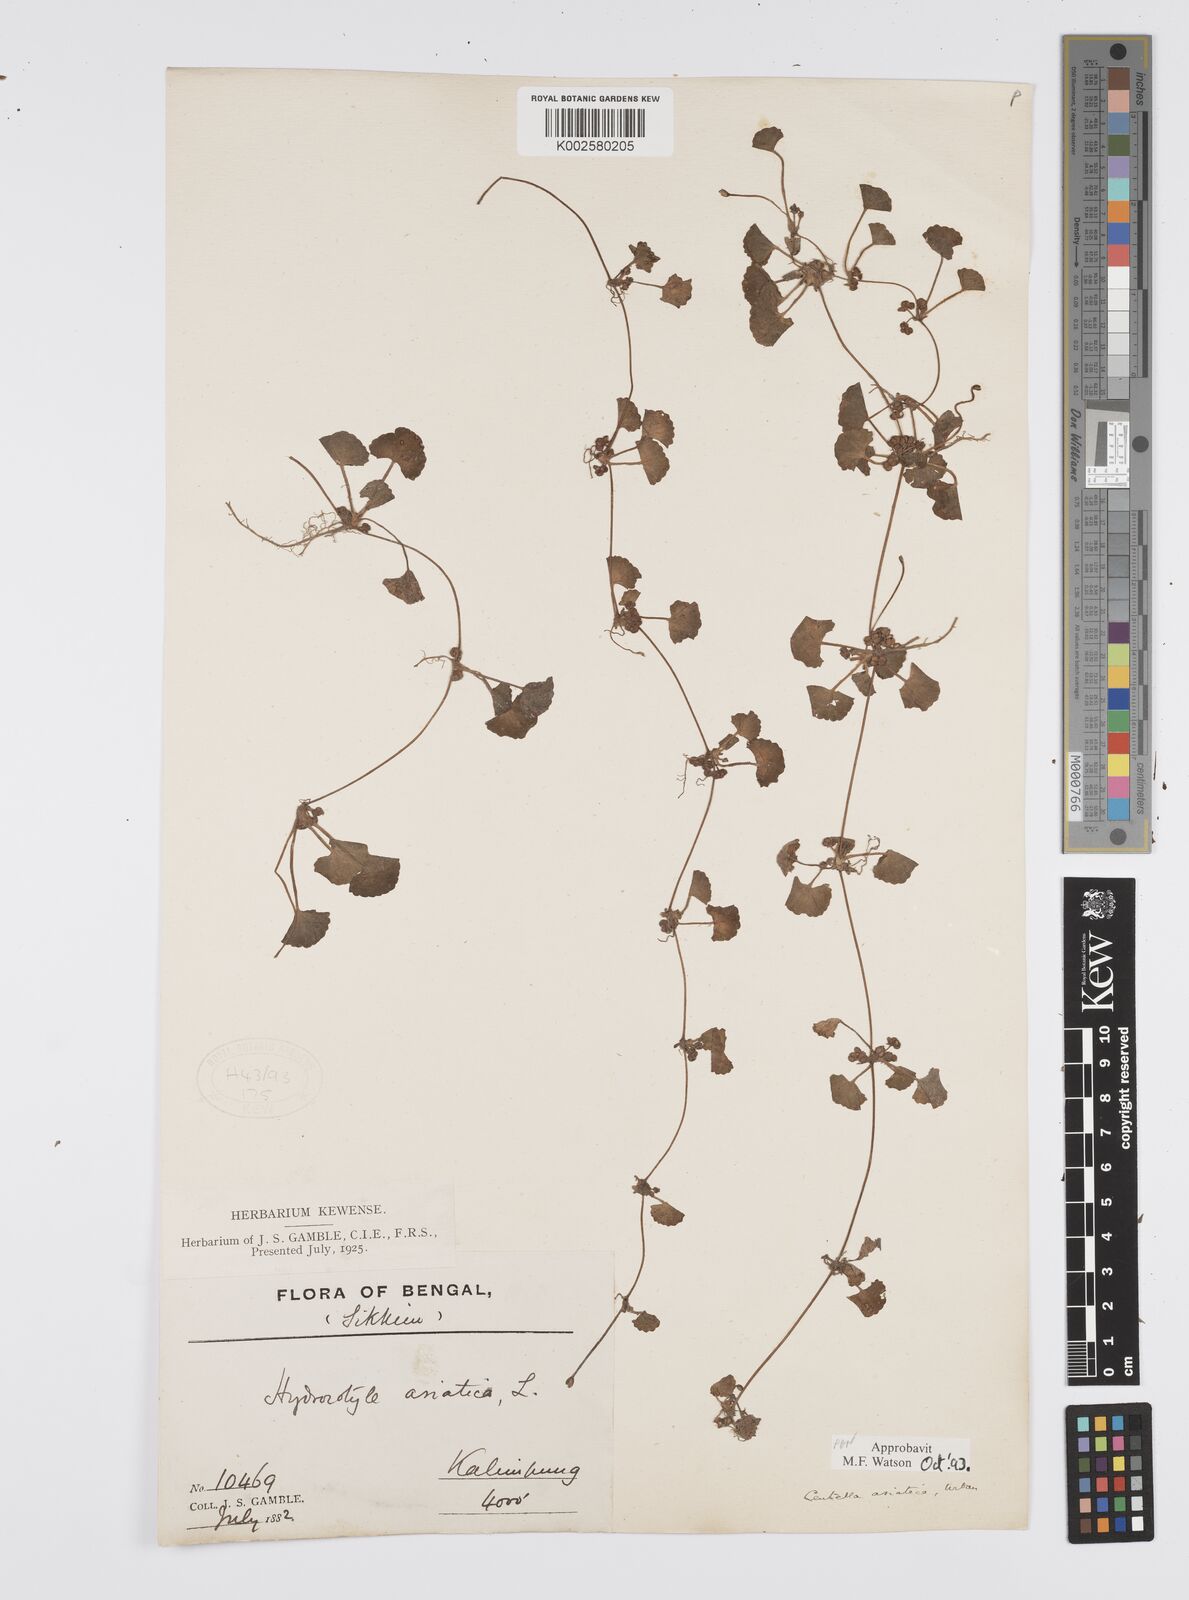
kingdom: Plantae
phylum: Tracheophyta
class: Magnoliopsida
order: Apiales
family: Apiaceae
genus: Centella
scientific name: Centella asiatica
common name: Spadeleaf
